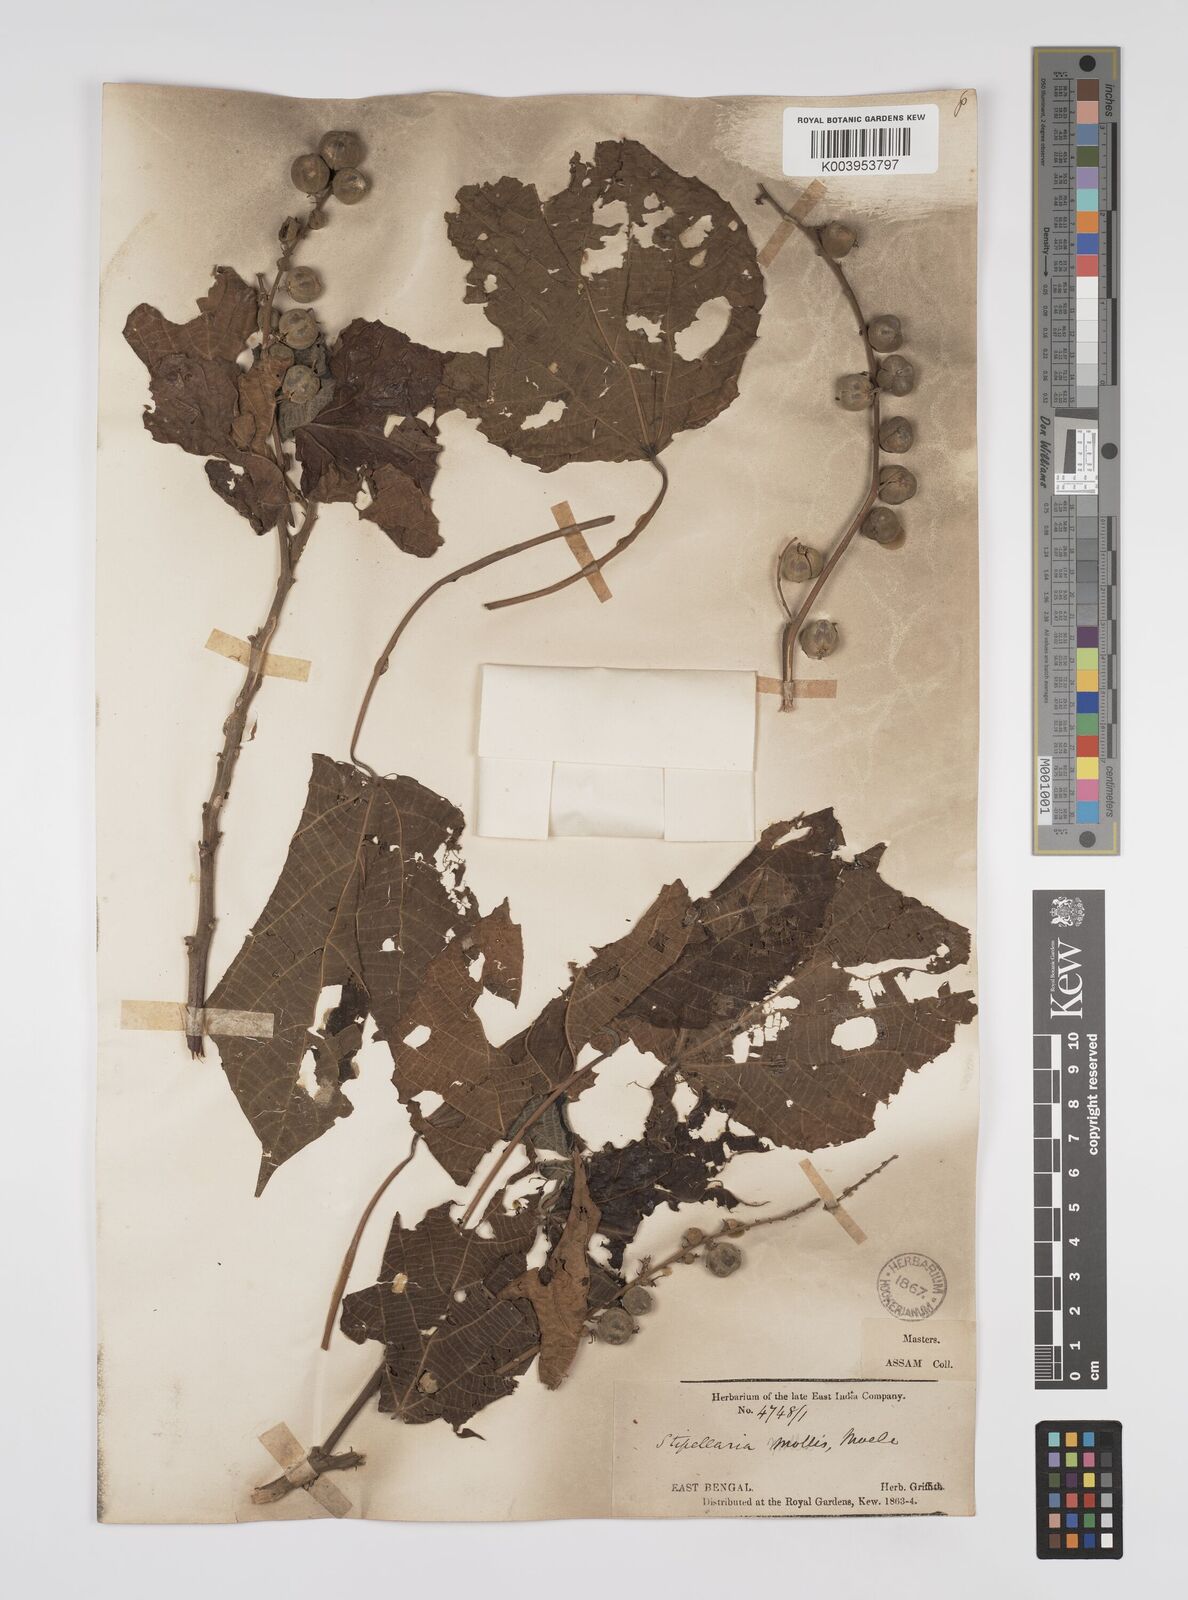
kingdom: Plantae
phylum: Tracheophyta
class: Magnoliopsida
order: Malpighiales
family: Euphorbiaceae
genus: Alchornea
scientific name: Alchornea mollis
